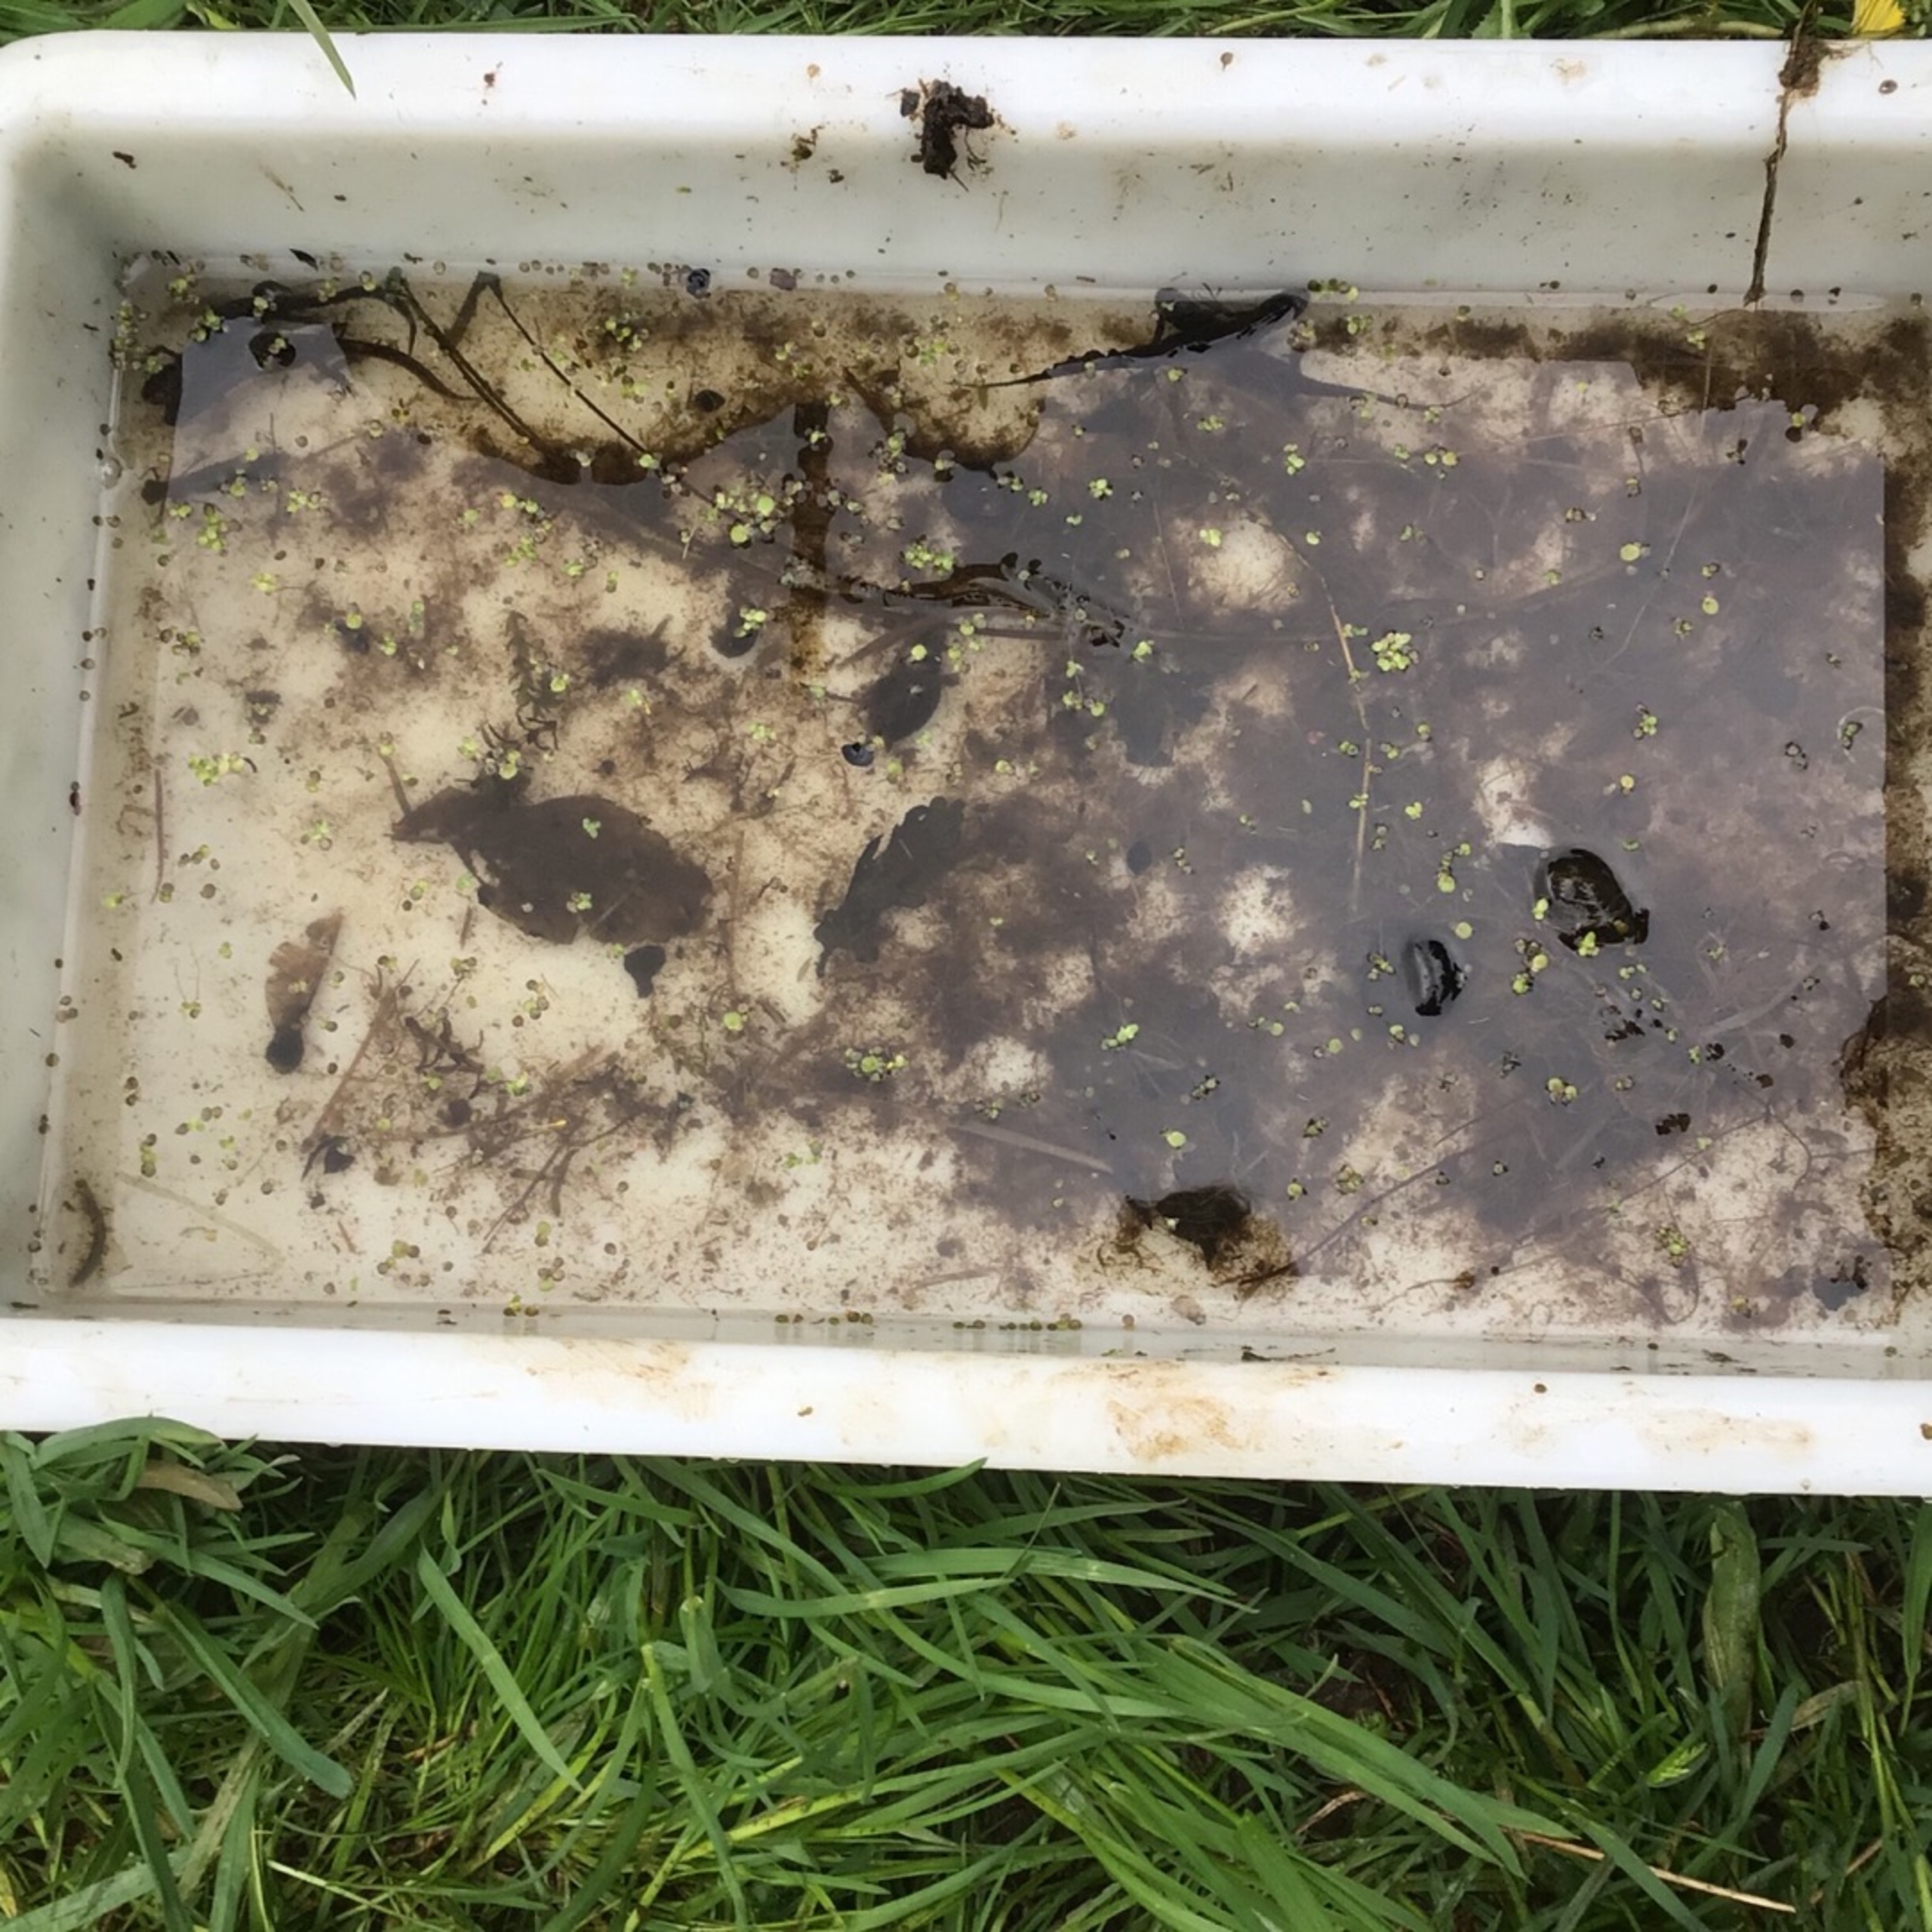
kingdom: Animalia
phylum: Chordata
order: Cypriniformes
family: Cyprinidae
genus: Carassius
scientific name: Carassius auratus
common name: Sølvkarusse
